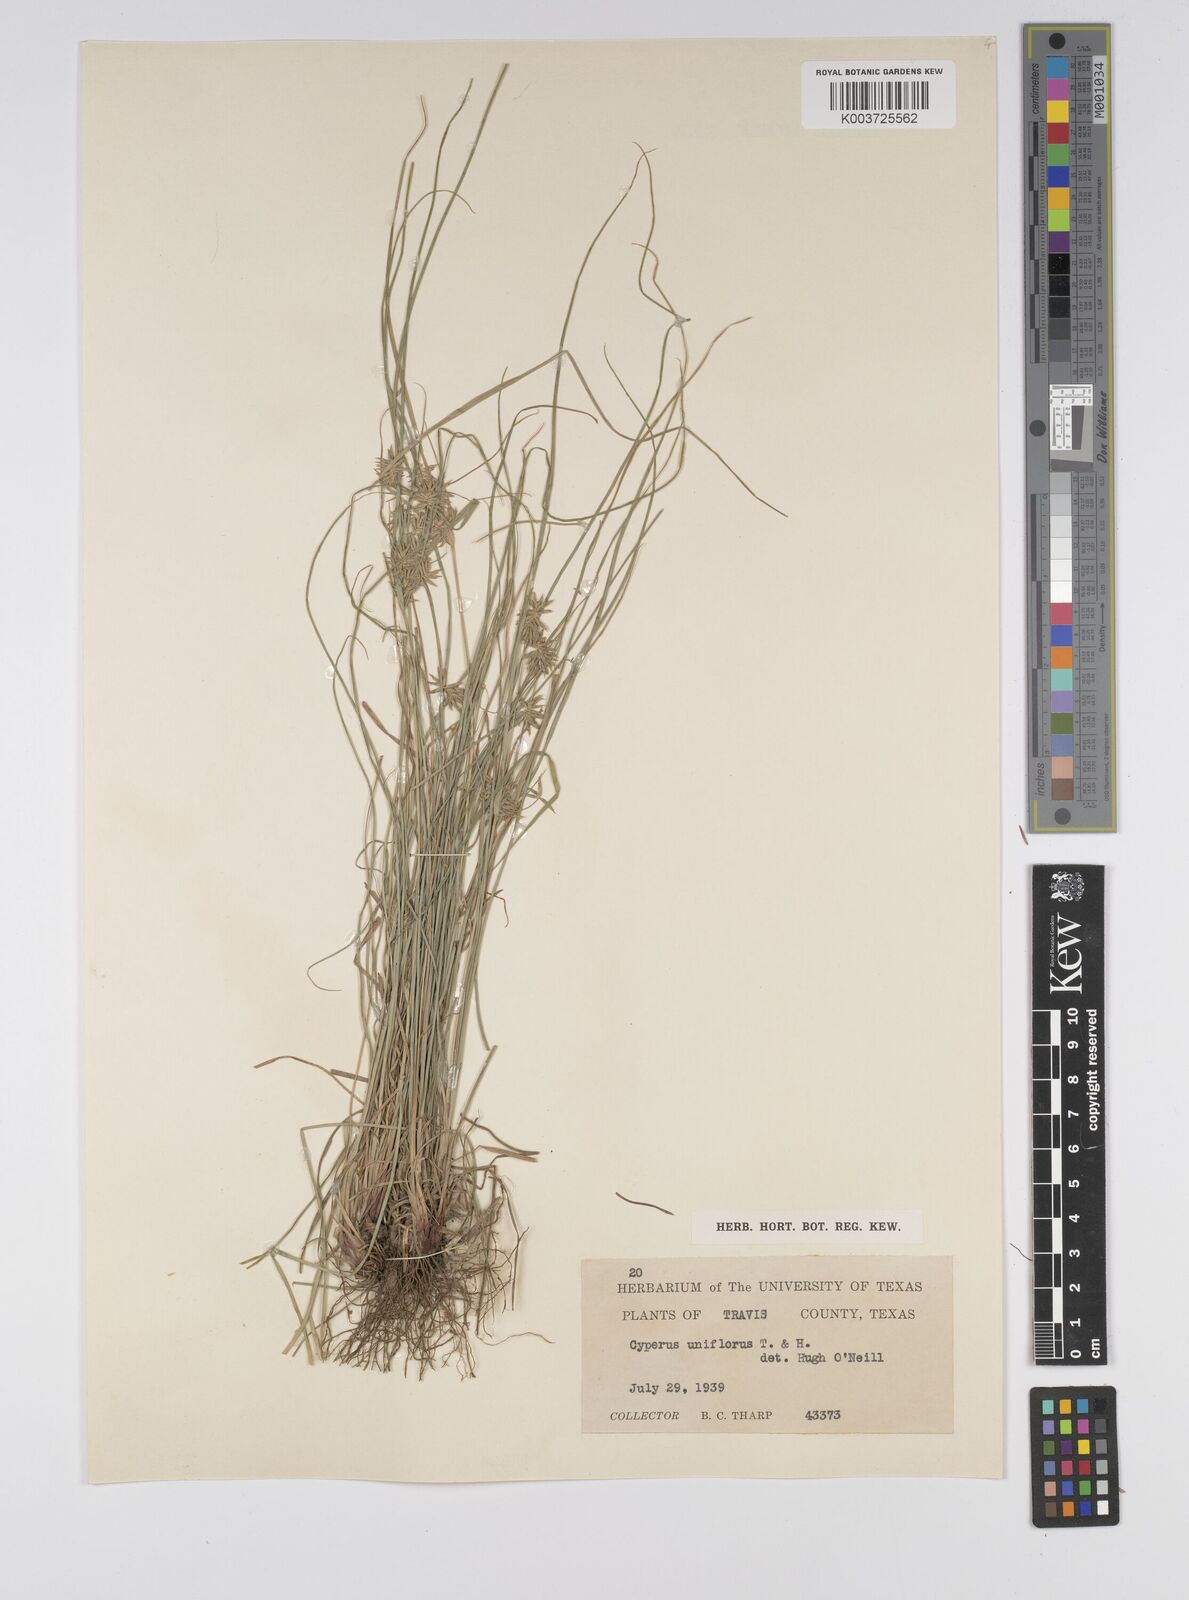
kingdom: Plantae
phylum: Tracheophyta
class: Liliopsida
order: Poales
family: Cyperaceae
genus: Cyperus
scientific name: Cyperus retroflexus
